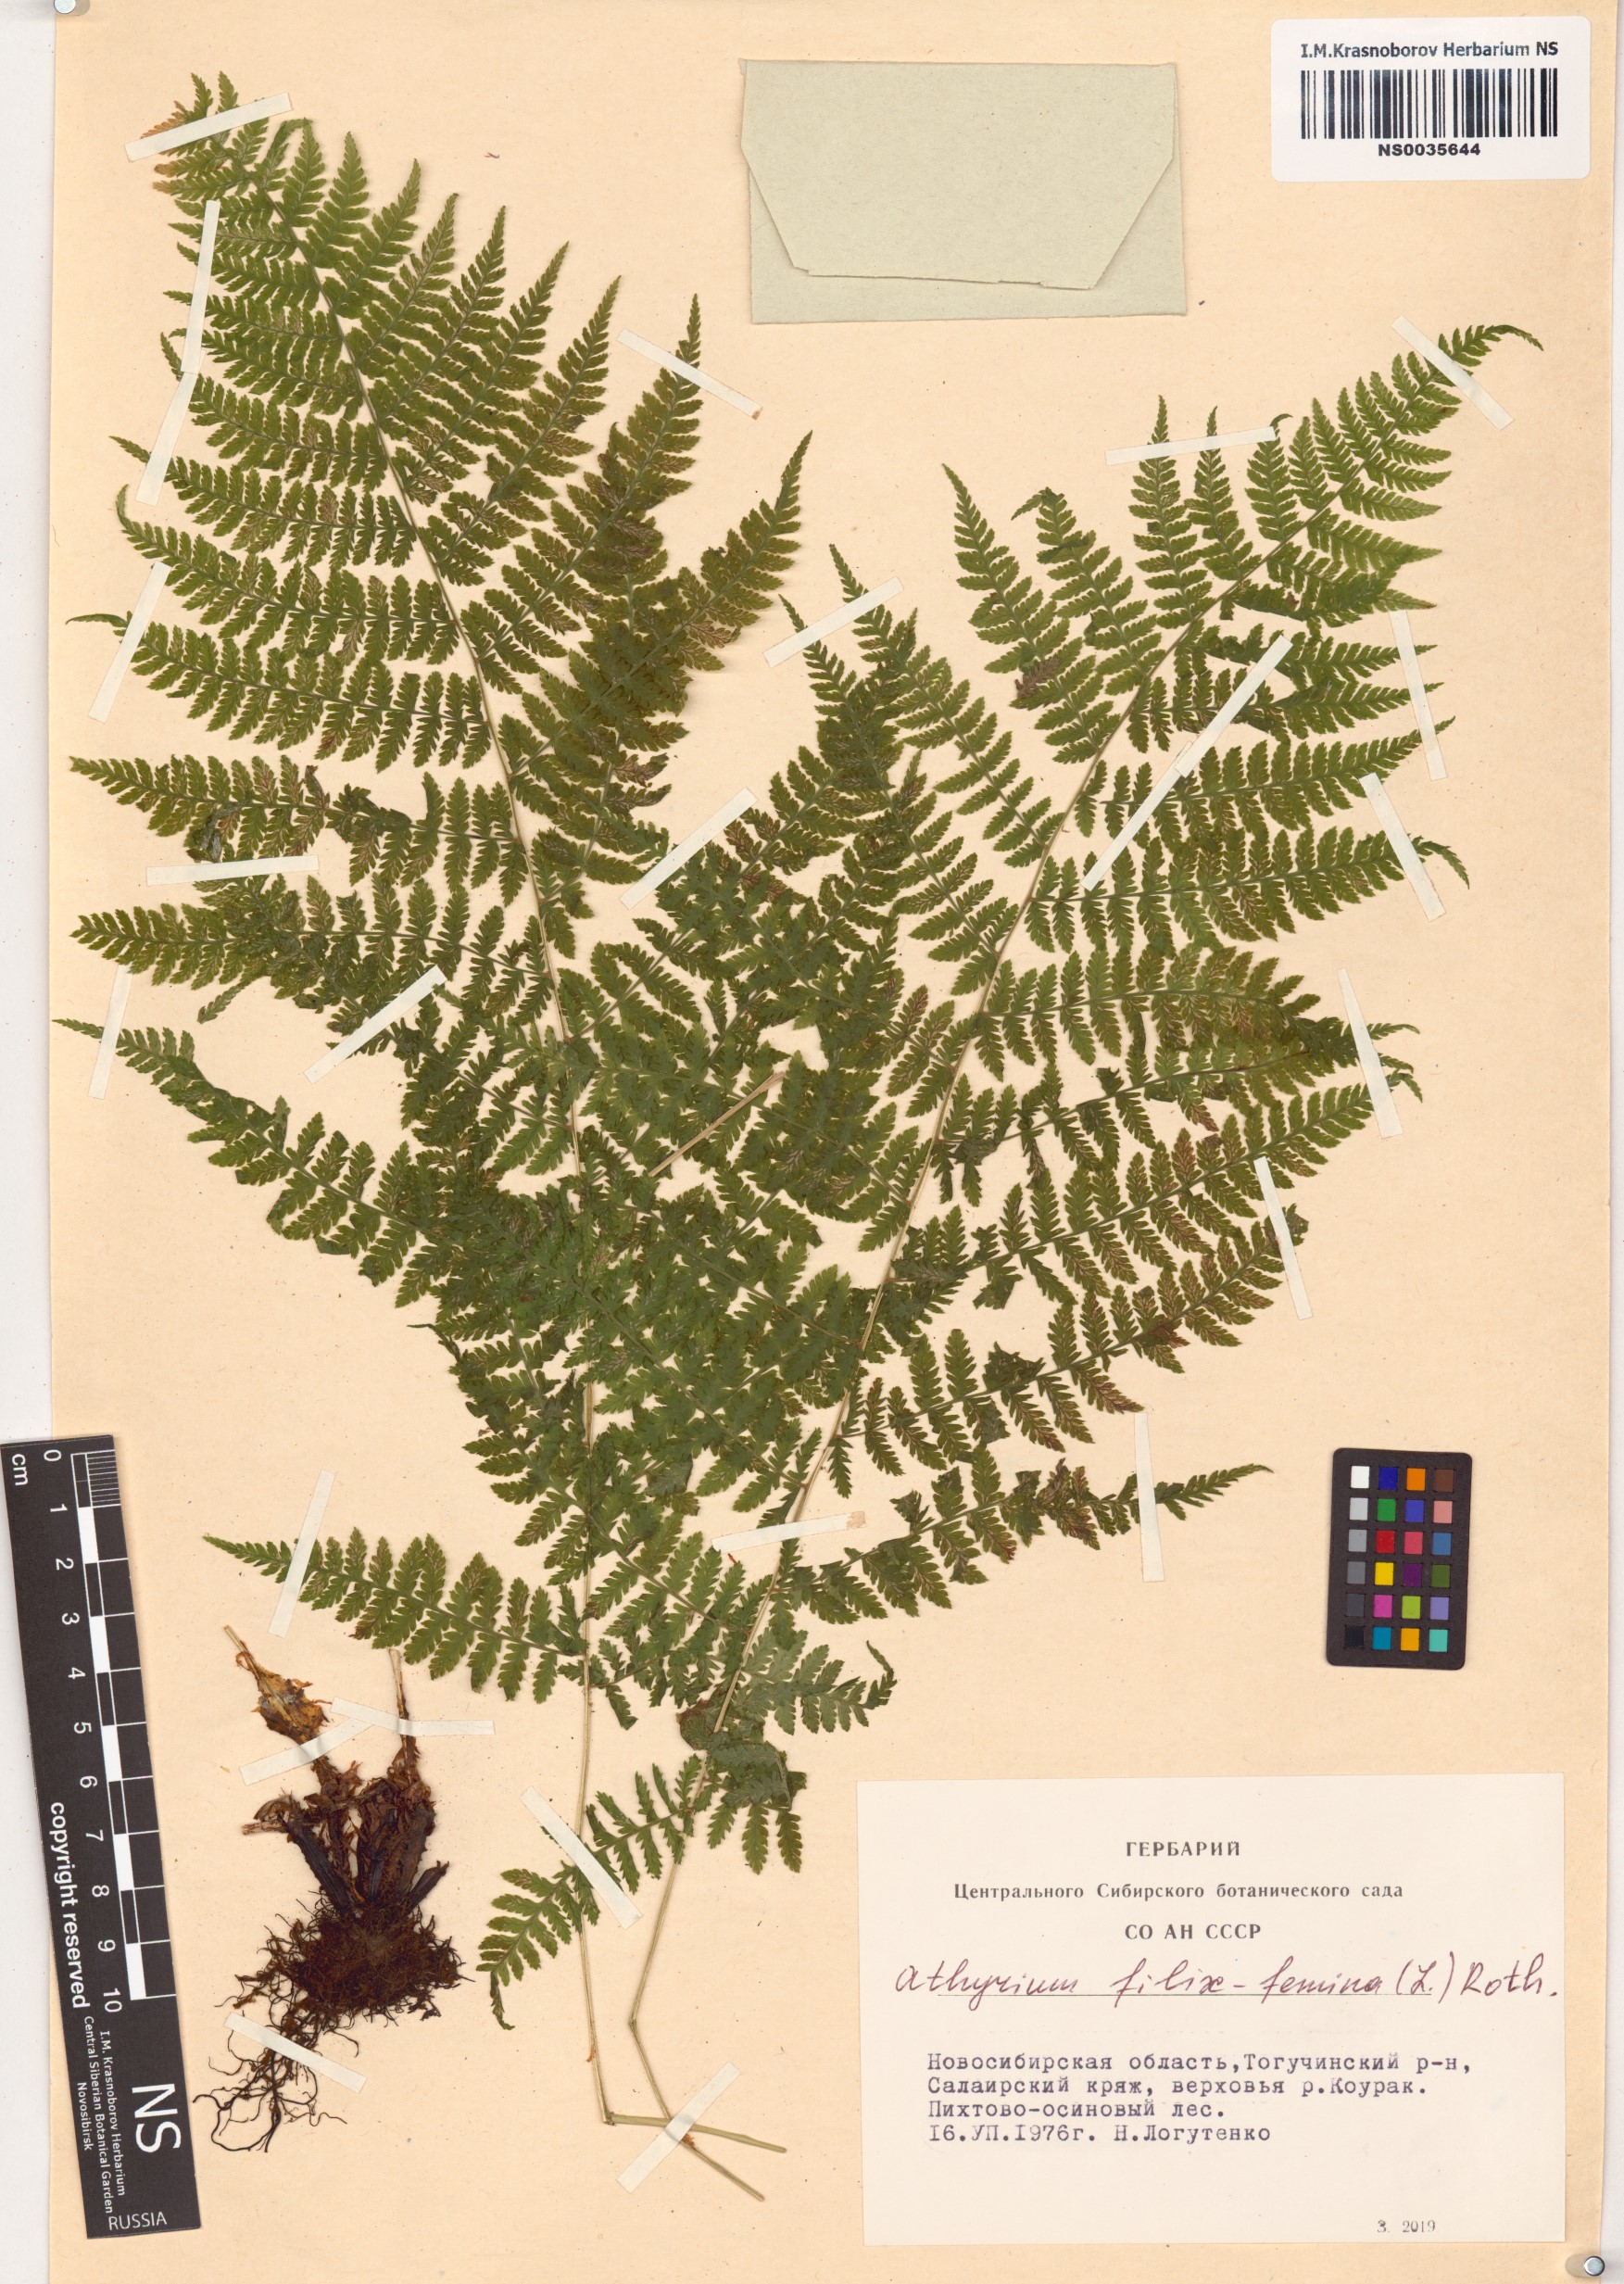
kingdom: Plantae
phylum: Tracheophyta
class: Polypodiopsida
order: Polypodiales
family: Athyriaceae
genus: Athyrium
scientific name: Athyrium filix-femina
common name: Lady fern
